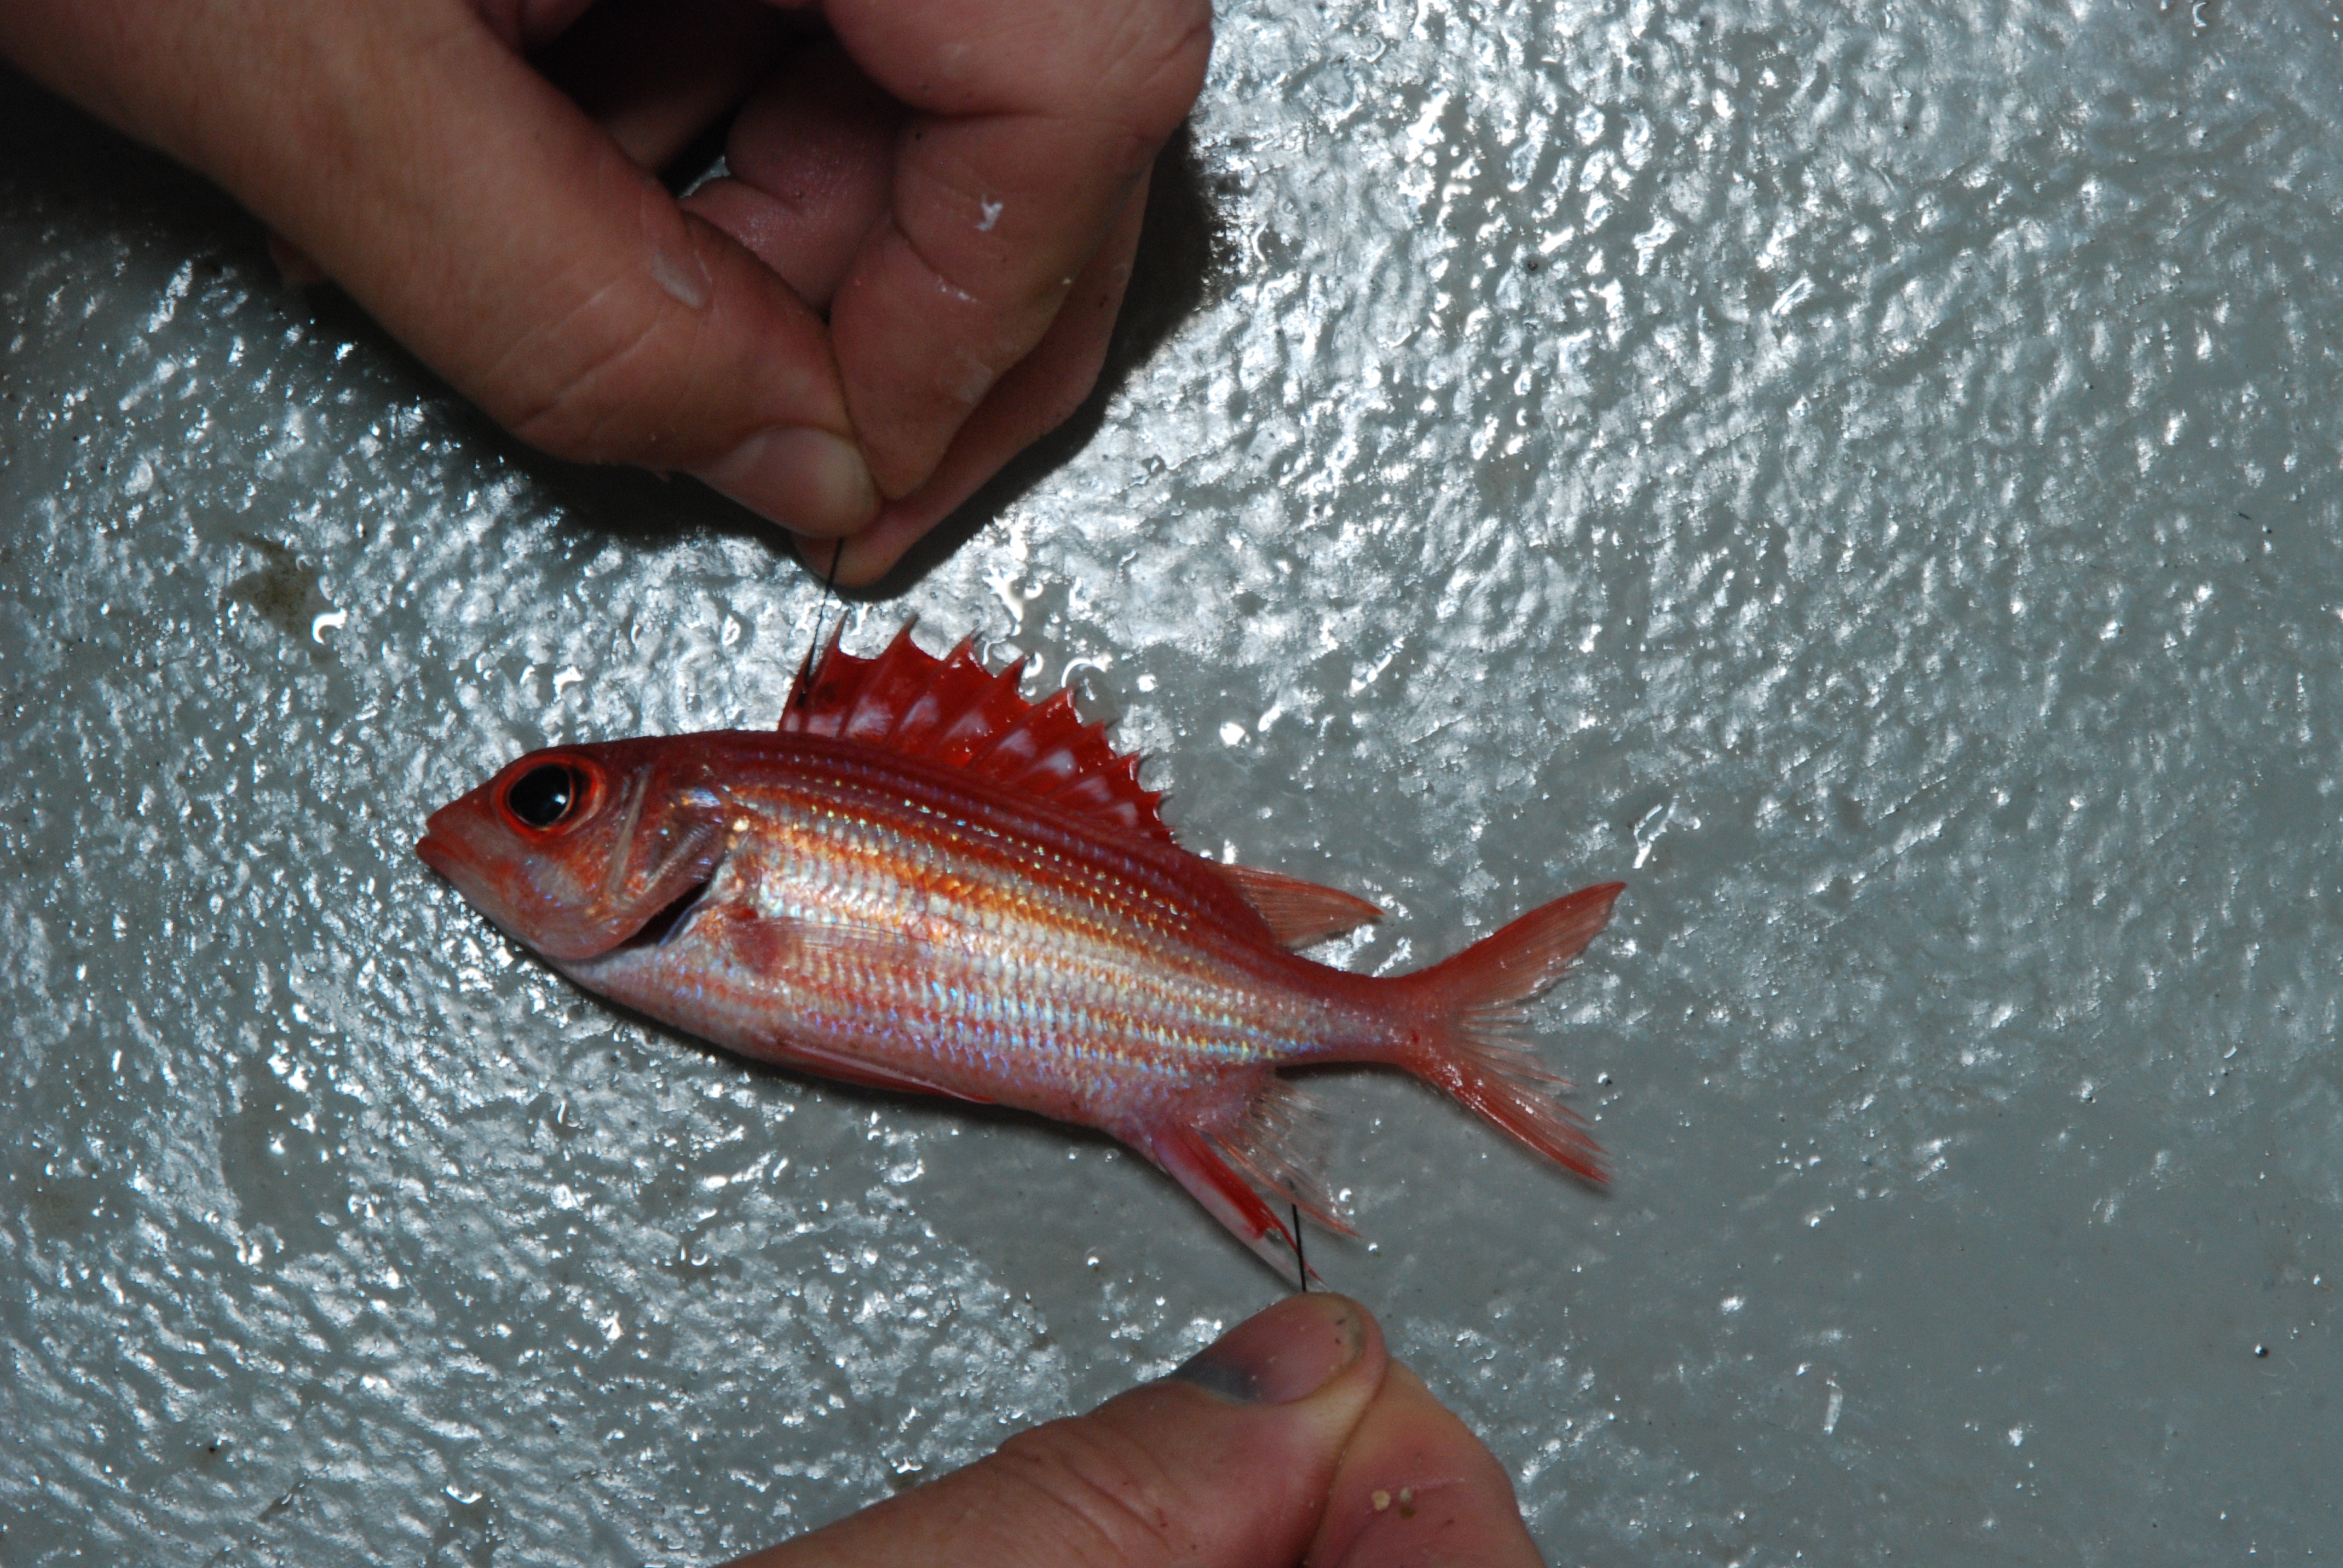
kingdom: Animalia
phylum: Chordata
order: Beryciformes
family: Holocentridae
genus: Sargocentron
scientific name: Sargocentron ittodai
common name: Samurai squirrelfish
